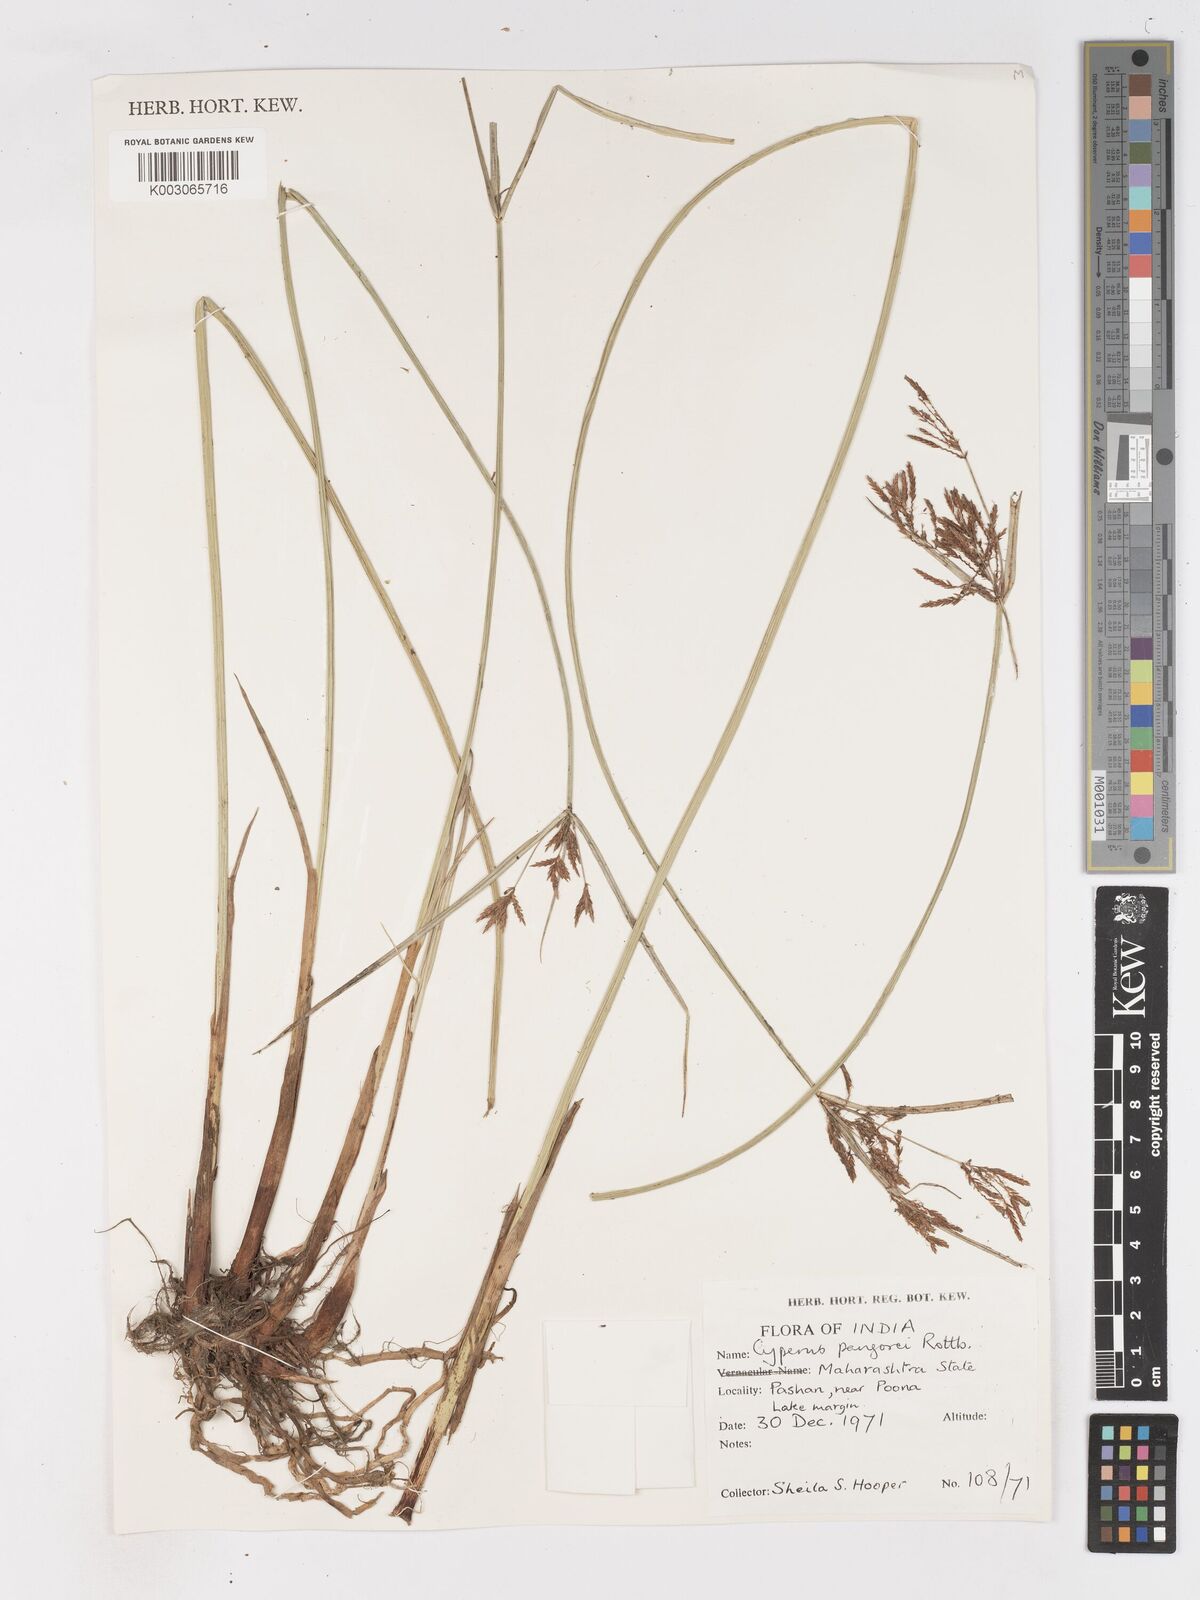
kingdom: Plantae
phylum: Tracheophyta
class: Liliopsida
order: Poales
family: Cyperaceae
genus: Cyperus
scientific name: Cyperus pangorei
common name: Mat sedge
